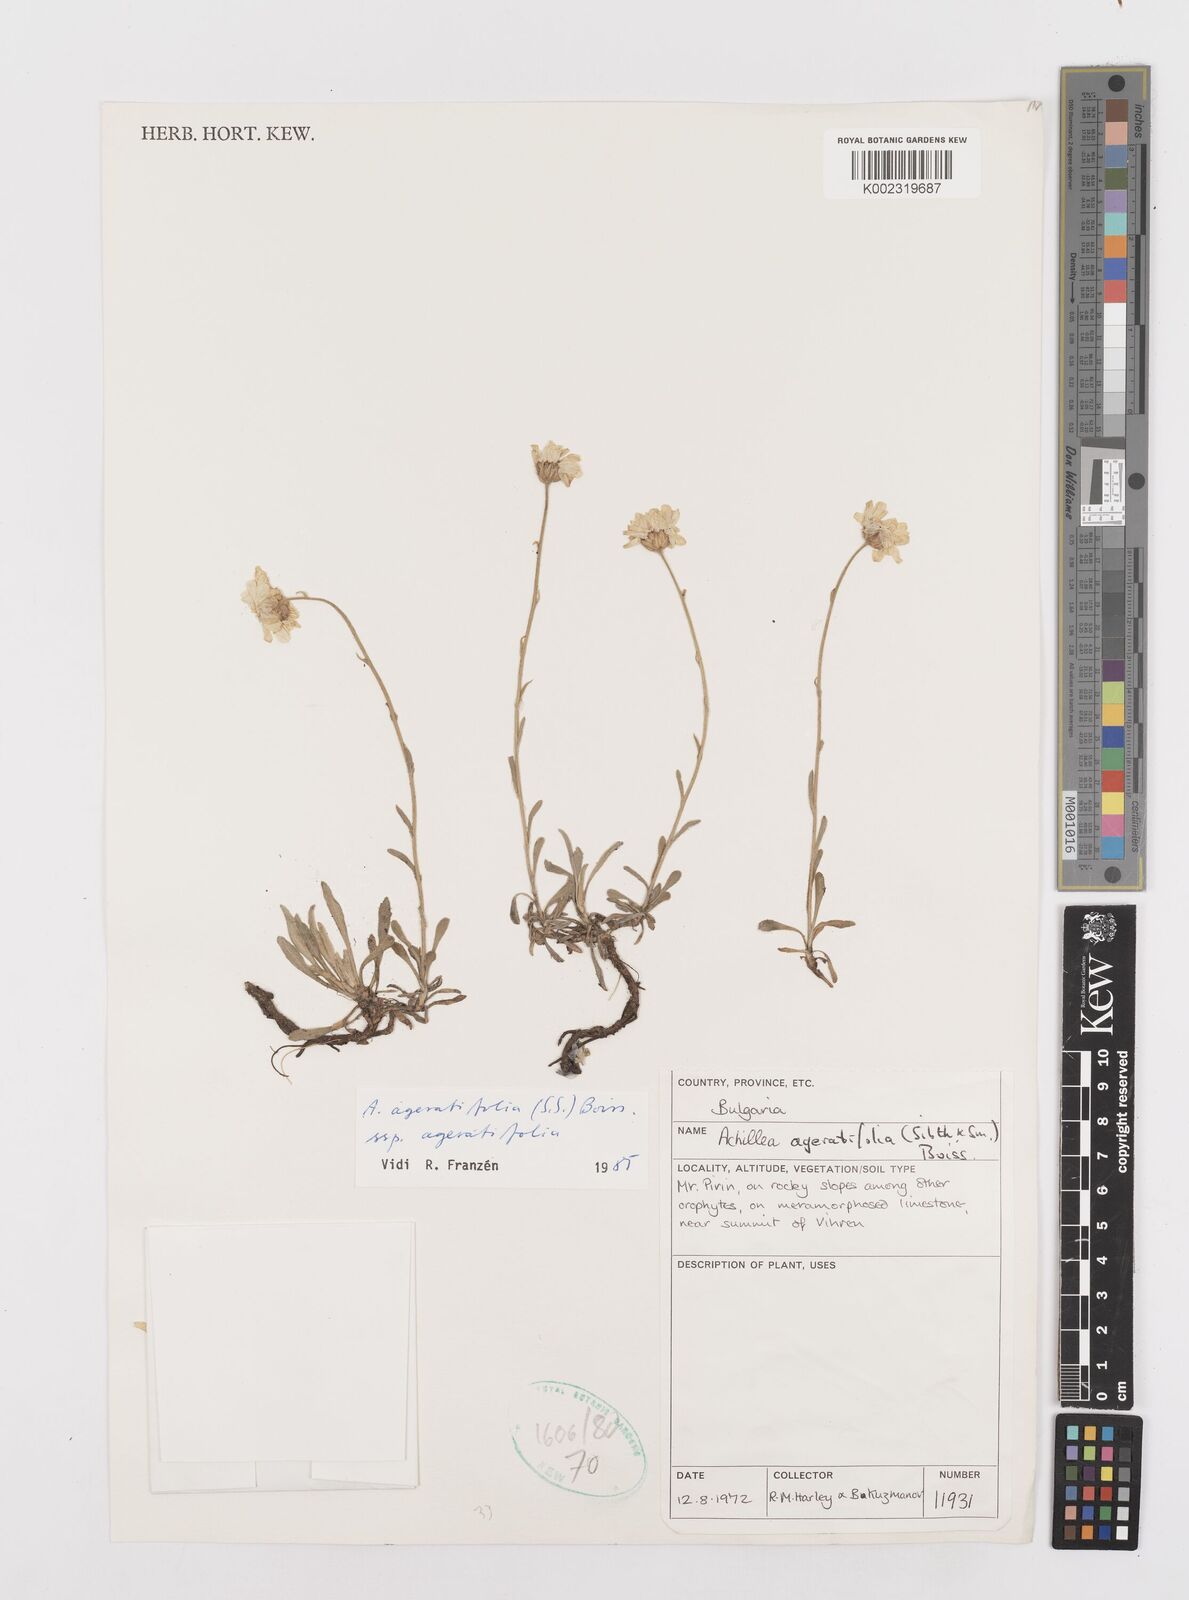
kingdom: Plantae
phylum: Tracheophyta
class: Magnoliopsida
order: Asterales
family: Asteraceae
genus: Achillea
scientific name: Achillea ageratifolia
